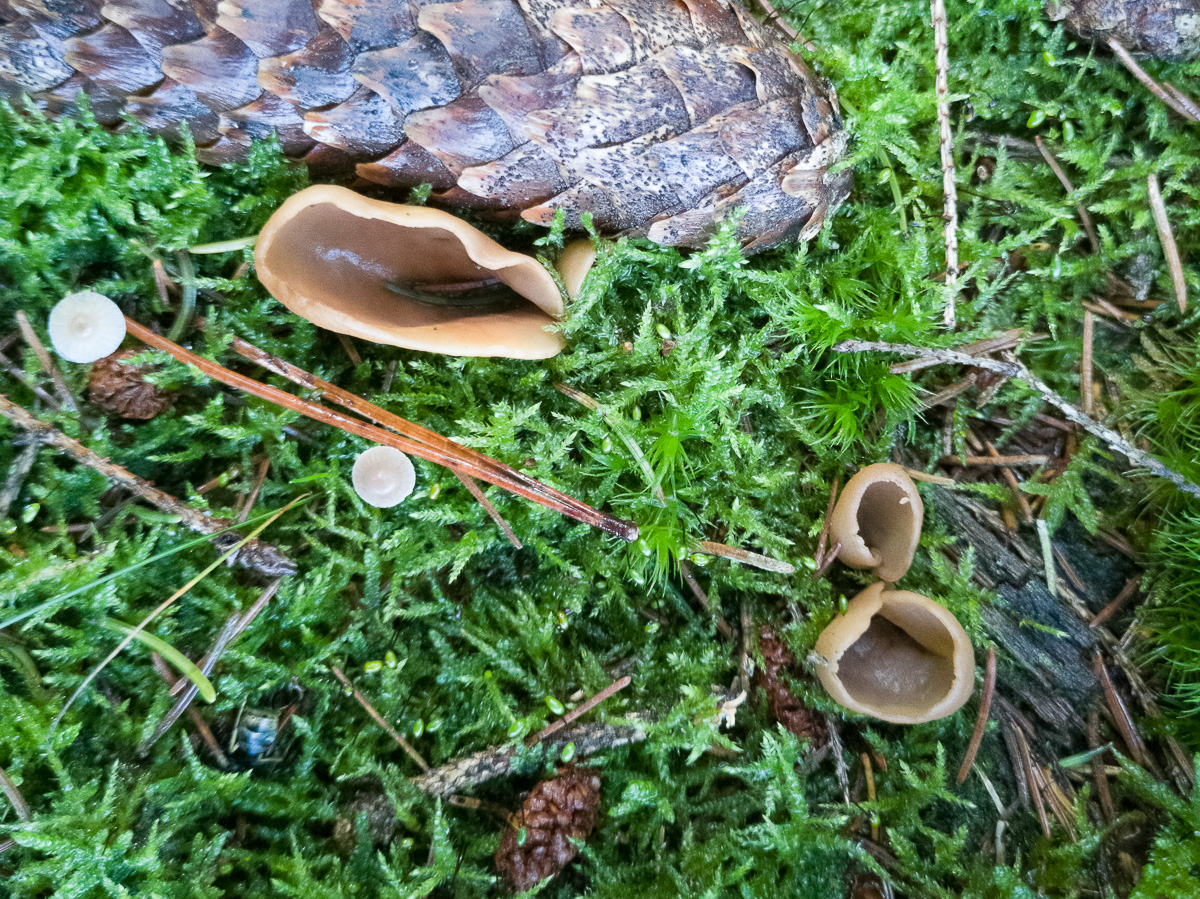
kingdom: Fungi
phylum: Ascomycota
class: Pezizomycetes
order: Pezizales
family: Otideaceae
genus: Otidea
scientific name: Otidea leporina
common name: hare-ørebæger
